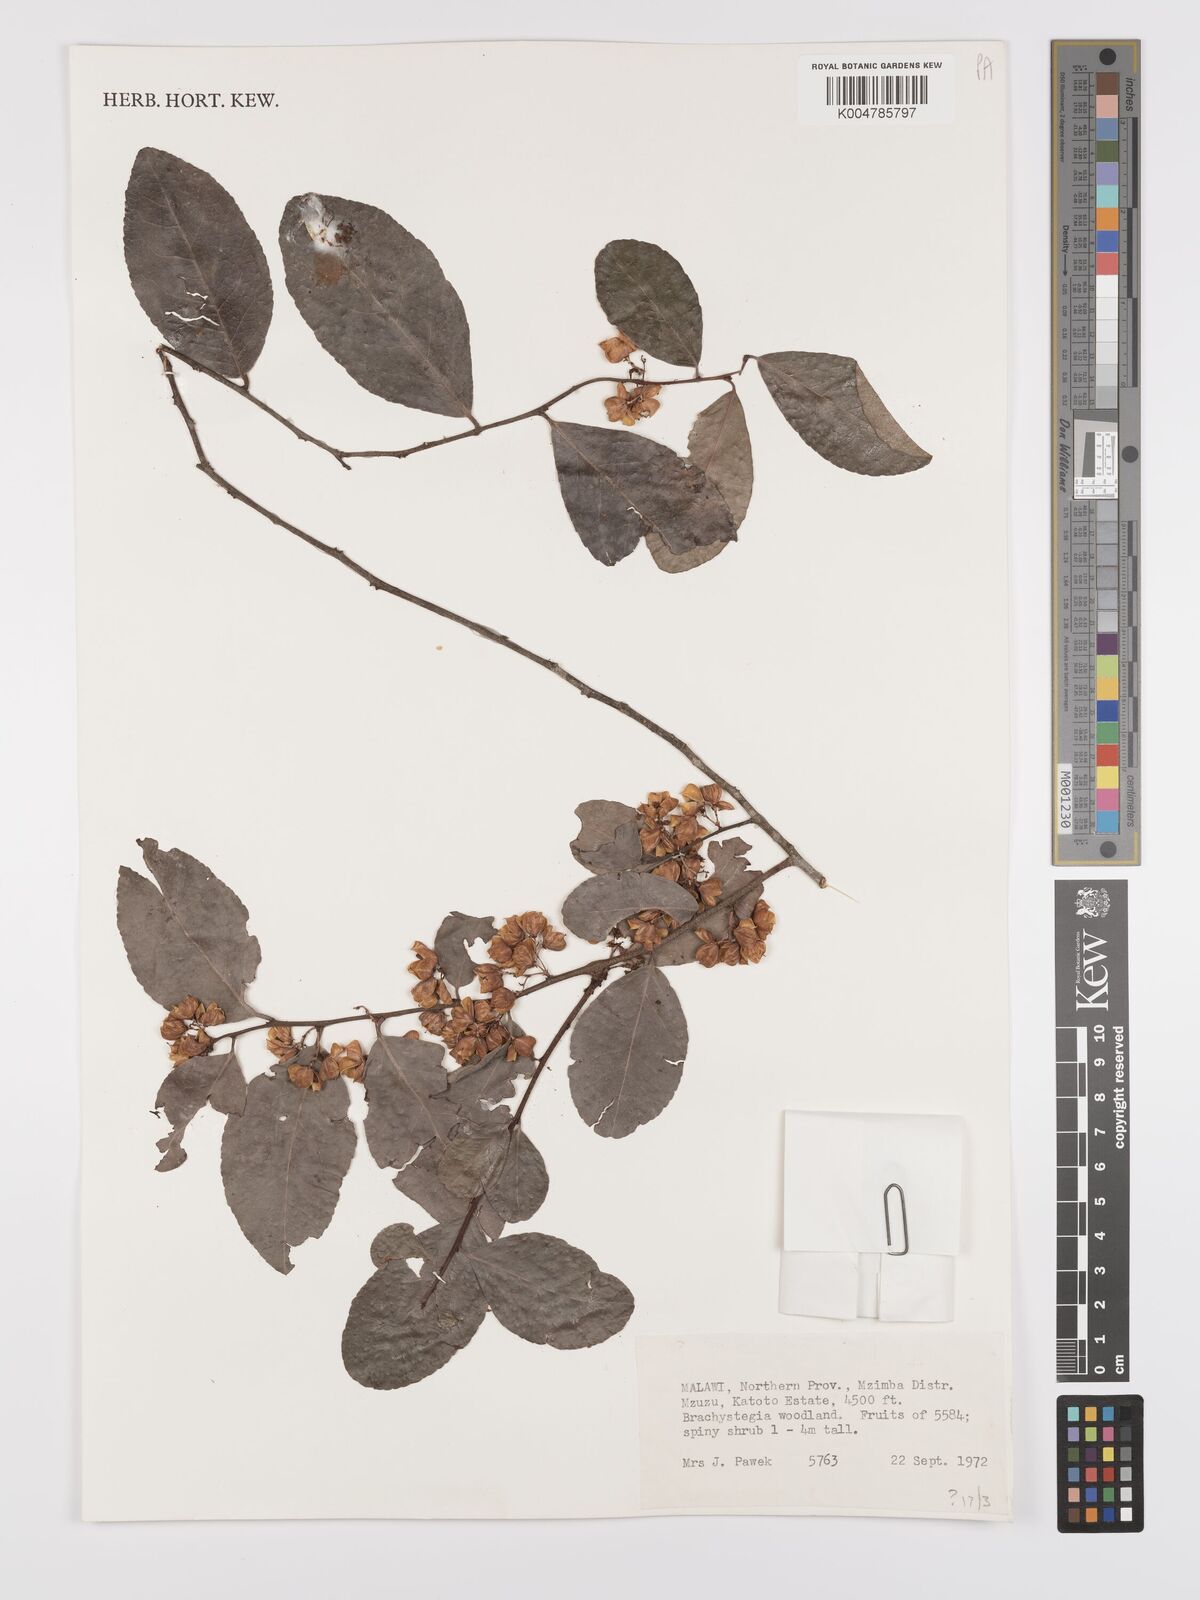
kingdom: Plantae
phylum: Tracheophyta
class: Magnoliopsida
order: Celastrales
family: Celastraceae
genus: Gymnosporia
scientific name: Gymnosporia buchananii
